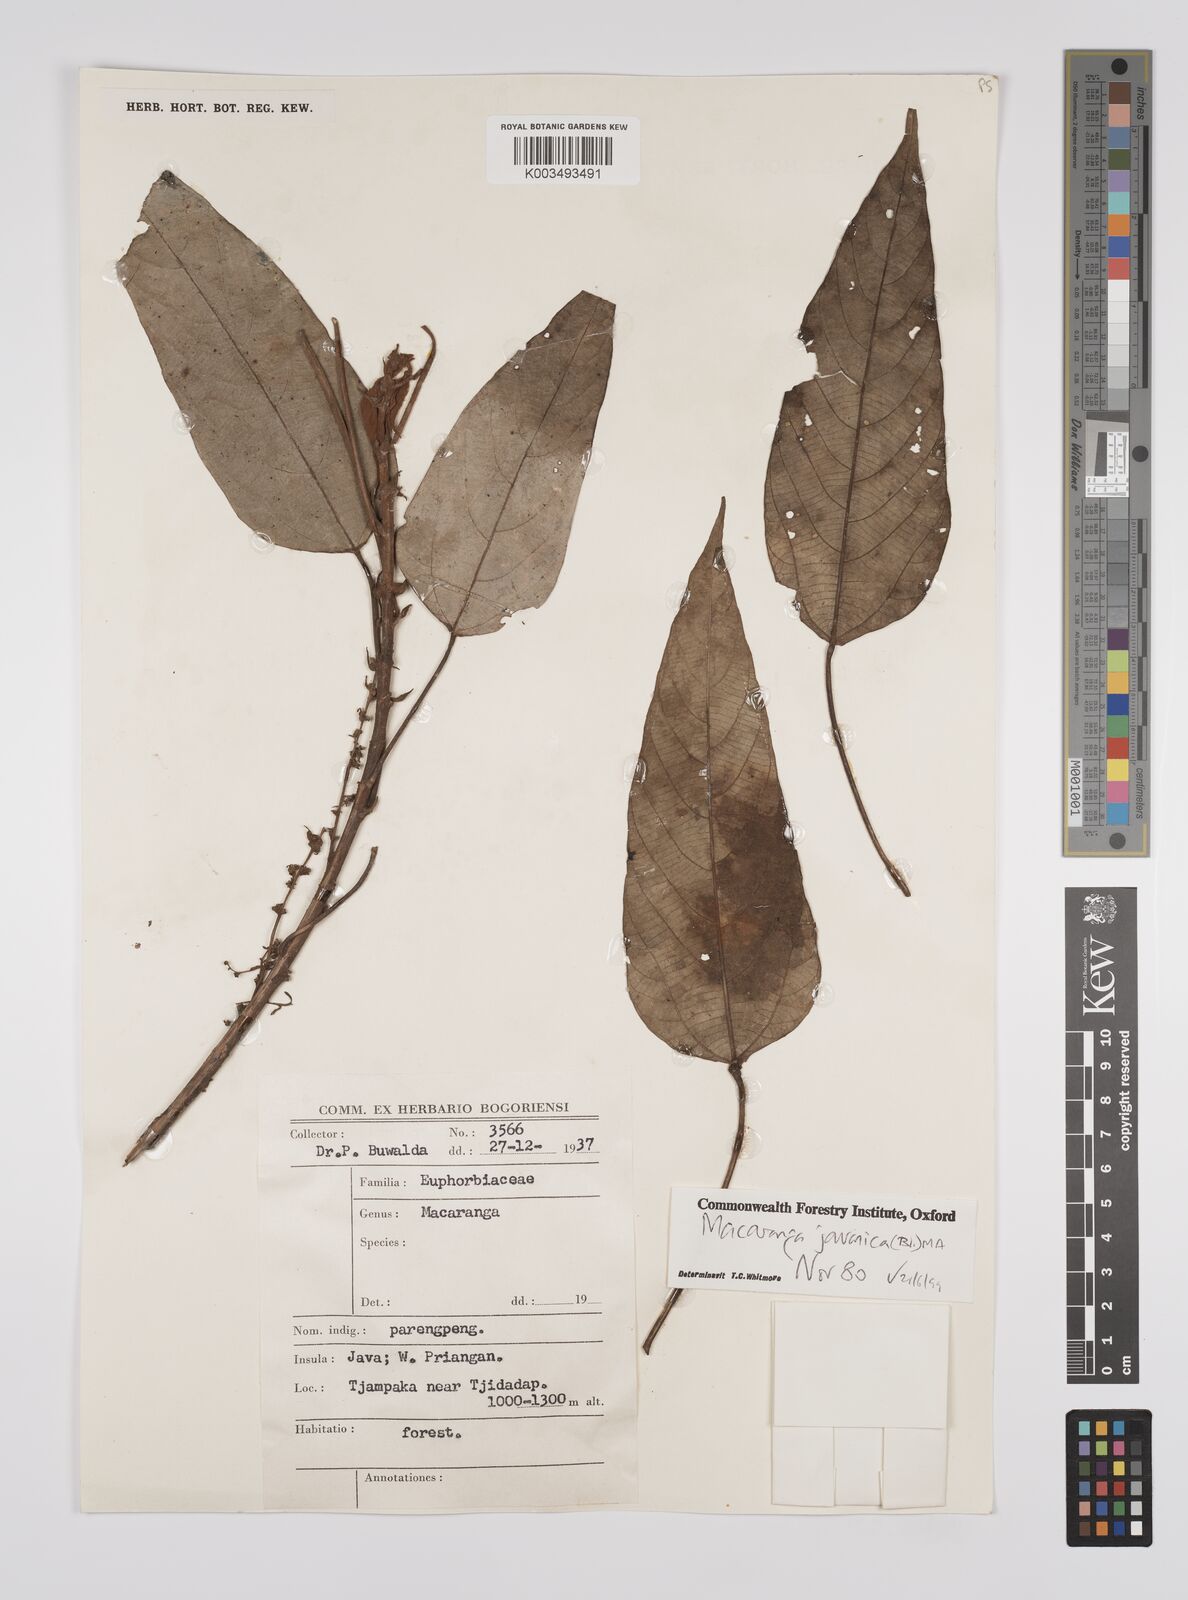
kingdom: Plantae
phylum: Tracheophyta
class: Magnoliopsida
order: Malpighiales
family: Euphorbiaceae
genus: Macaranga
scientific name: Macaranga javanica
